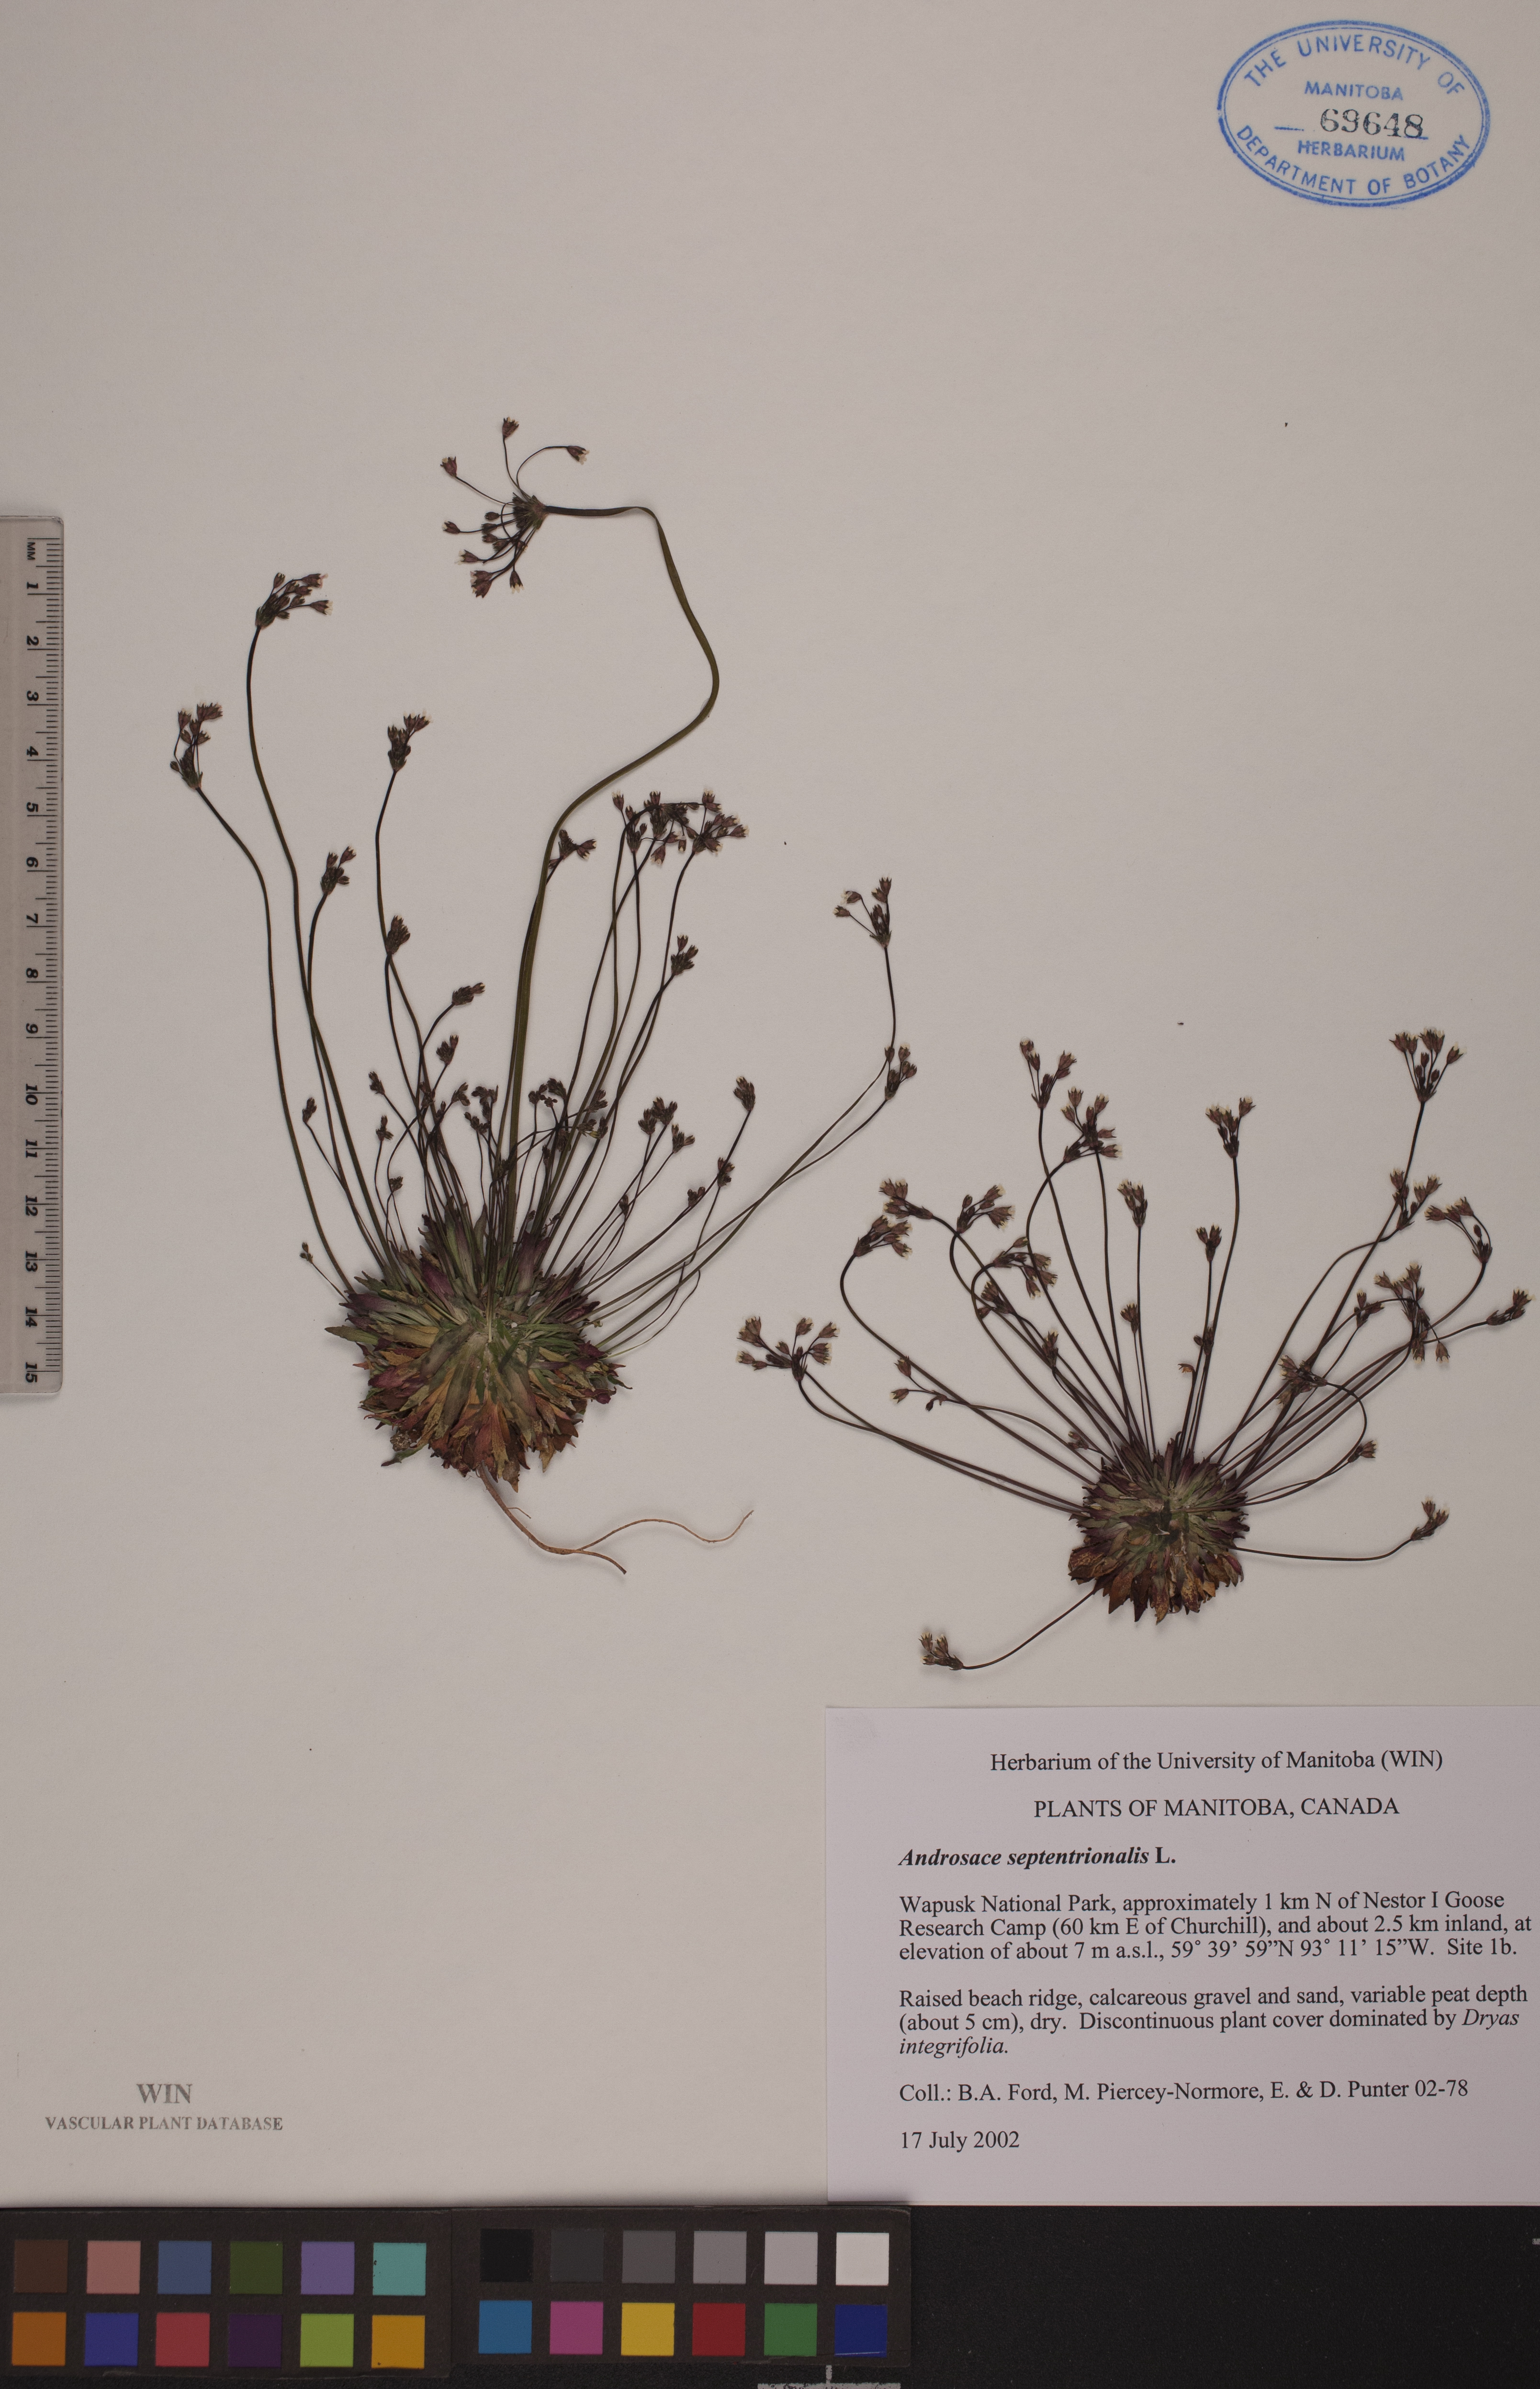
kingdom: Plantae
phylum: Tracheophyta
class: Magnoliopsida
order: Ericales
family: Primulaceae
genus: Androsace
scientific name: Androsace septentrionalis
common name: Hairy northern fairy-candelabra
